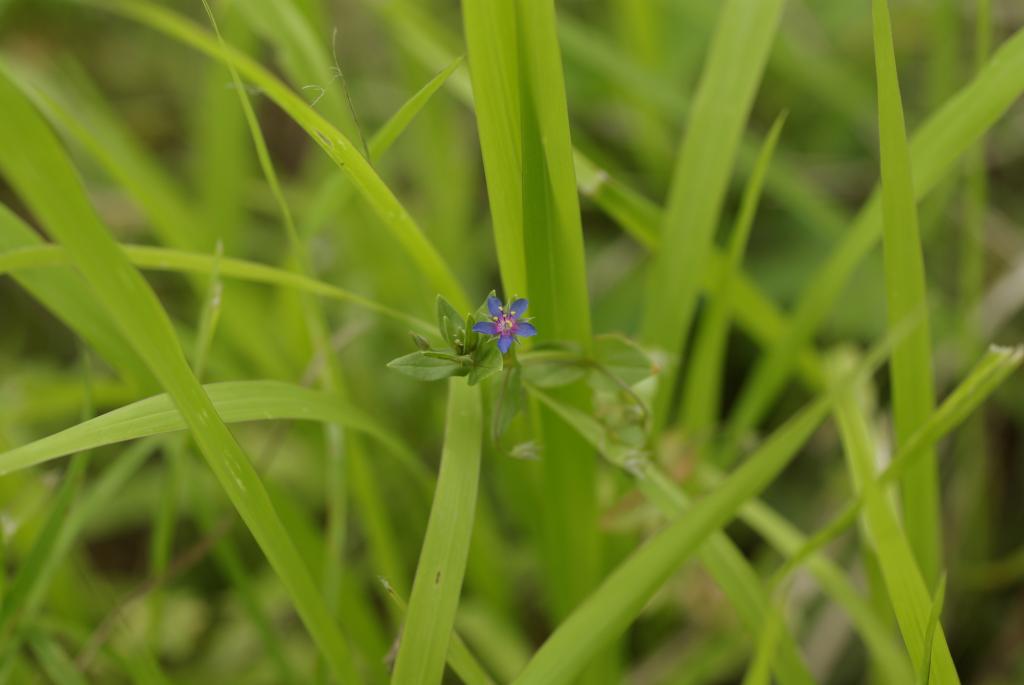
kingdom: Plantae
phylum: Tracheophyta
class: Magnoliopsida
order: Ericales
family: Primulaceae
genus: Lysimachia
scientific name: Lysimachia arvensis
